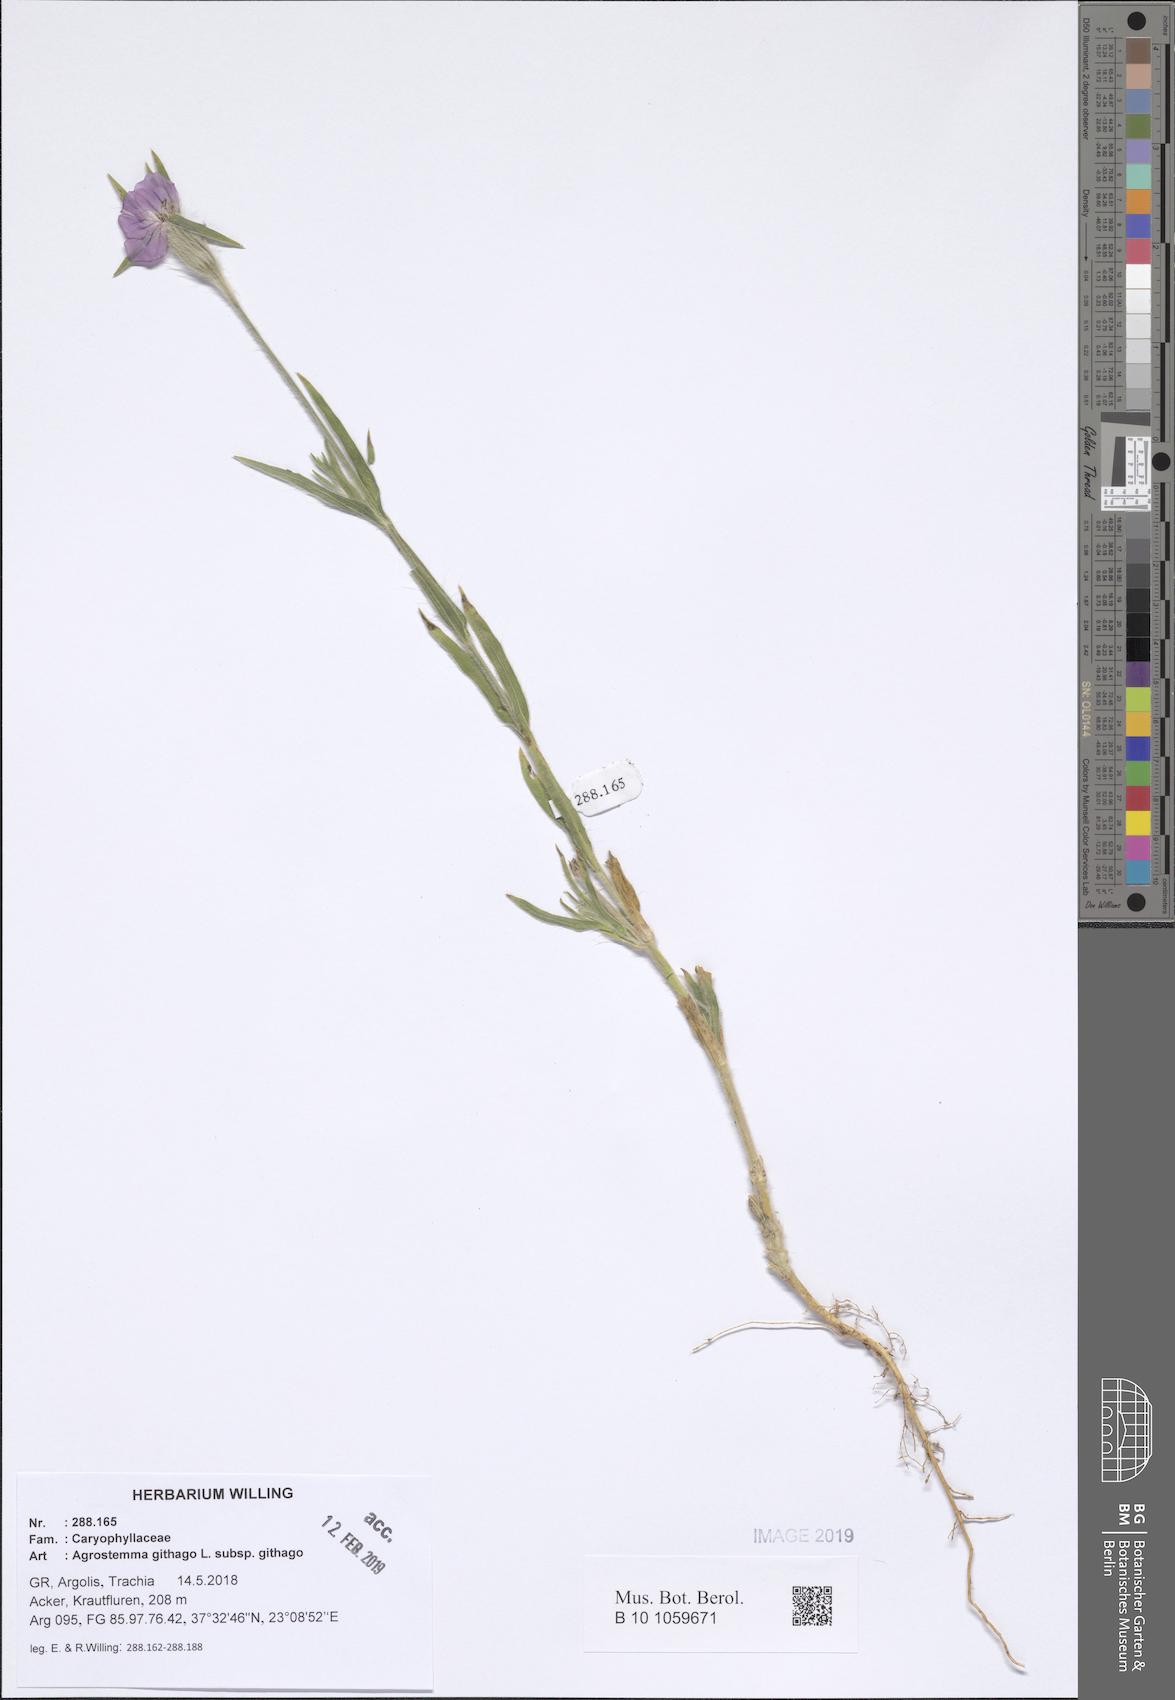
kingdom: Plantae
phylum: Tracheophyta
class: Magnoliopsida
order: Caryophyllales
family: Caryophyllaceae
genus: Agrostemma
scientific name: Agrostemma githago
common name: Common corncockle
